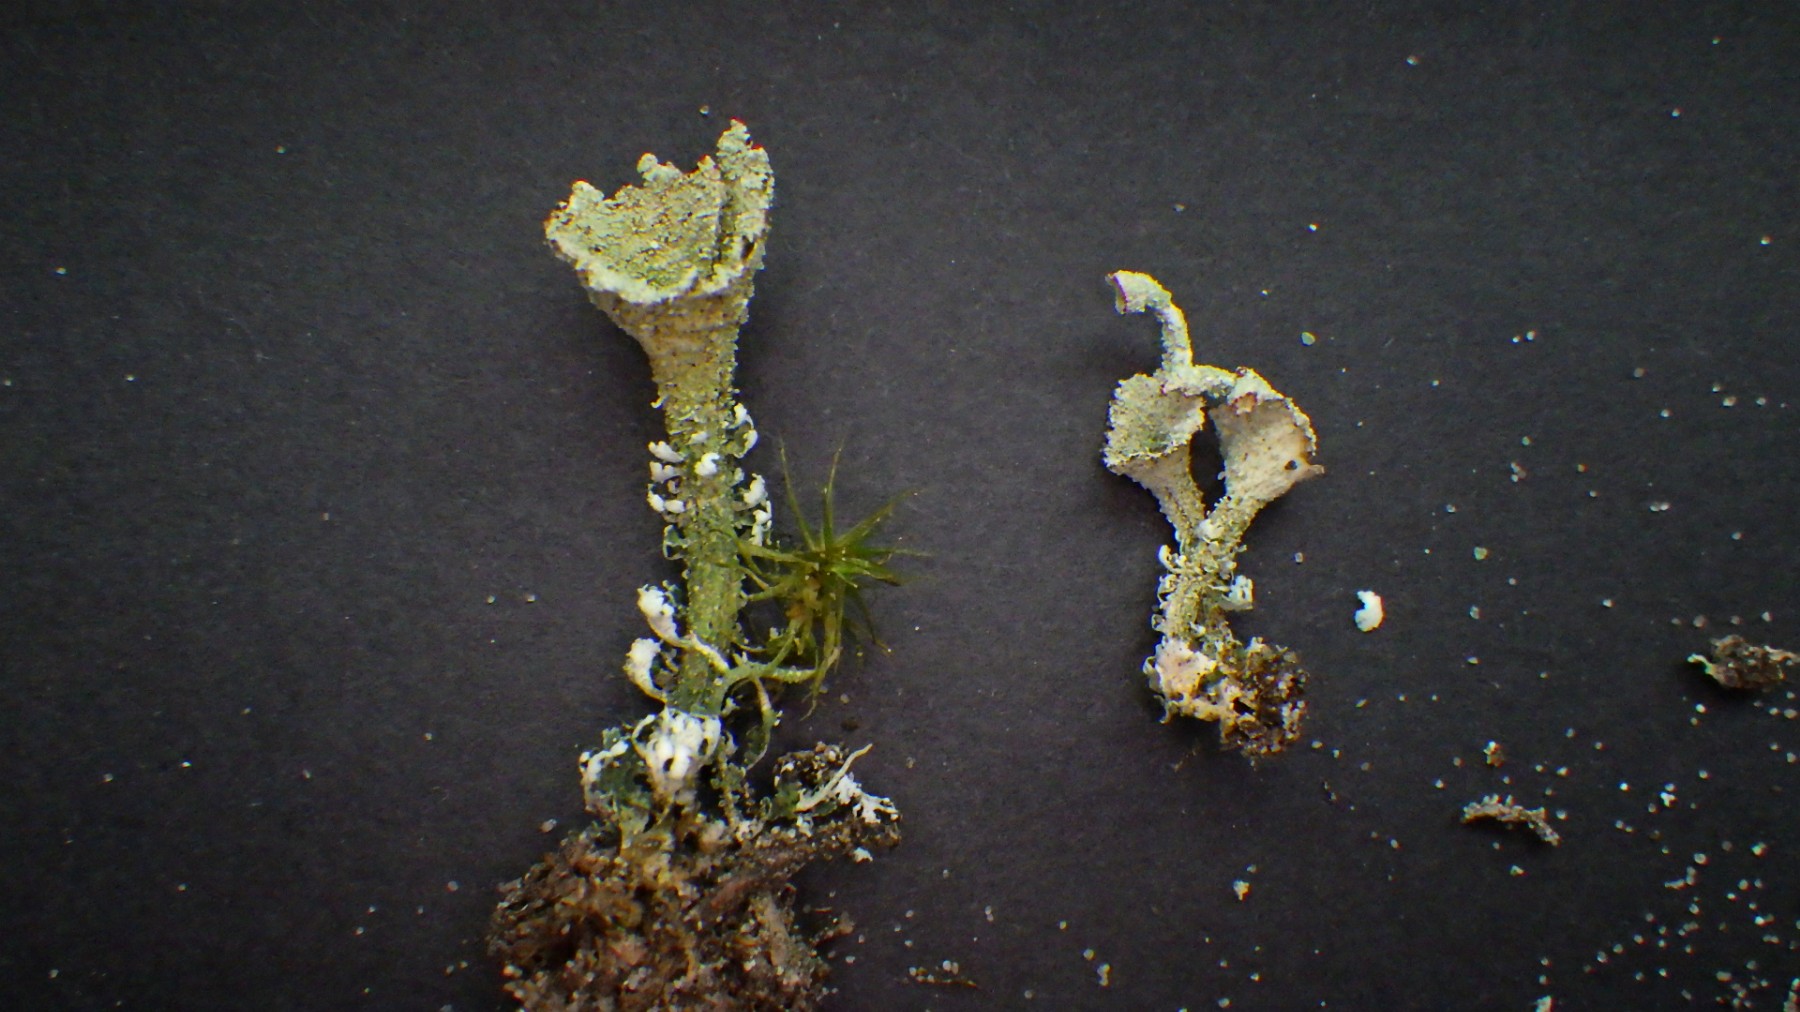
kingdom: Fungi
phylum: Ascomycota
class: Lecanoromycetes
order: Lecanorales
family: Cladoniaceae
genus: Cladonia
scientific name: Cladonia diversa
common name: rød bægerlav
